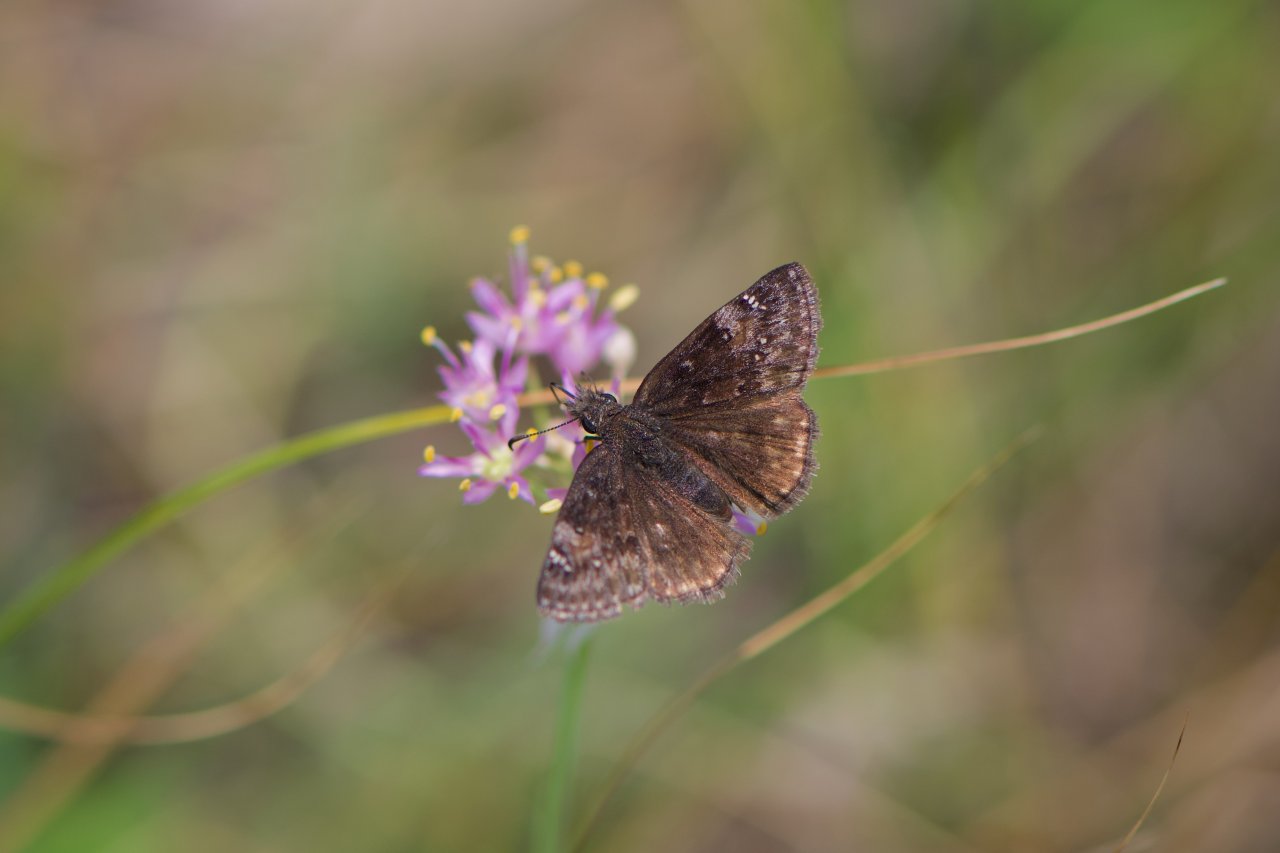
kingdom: Animalia
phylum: Arthropoda
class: Insecta
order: Lepidoptera
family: Hesperiidae
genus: Gesta
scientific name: Gesta
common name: Columbine Duskywing
